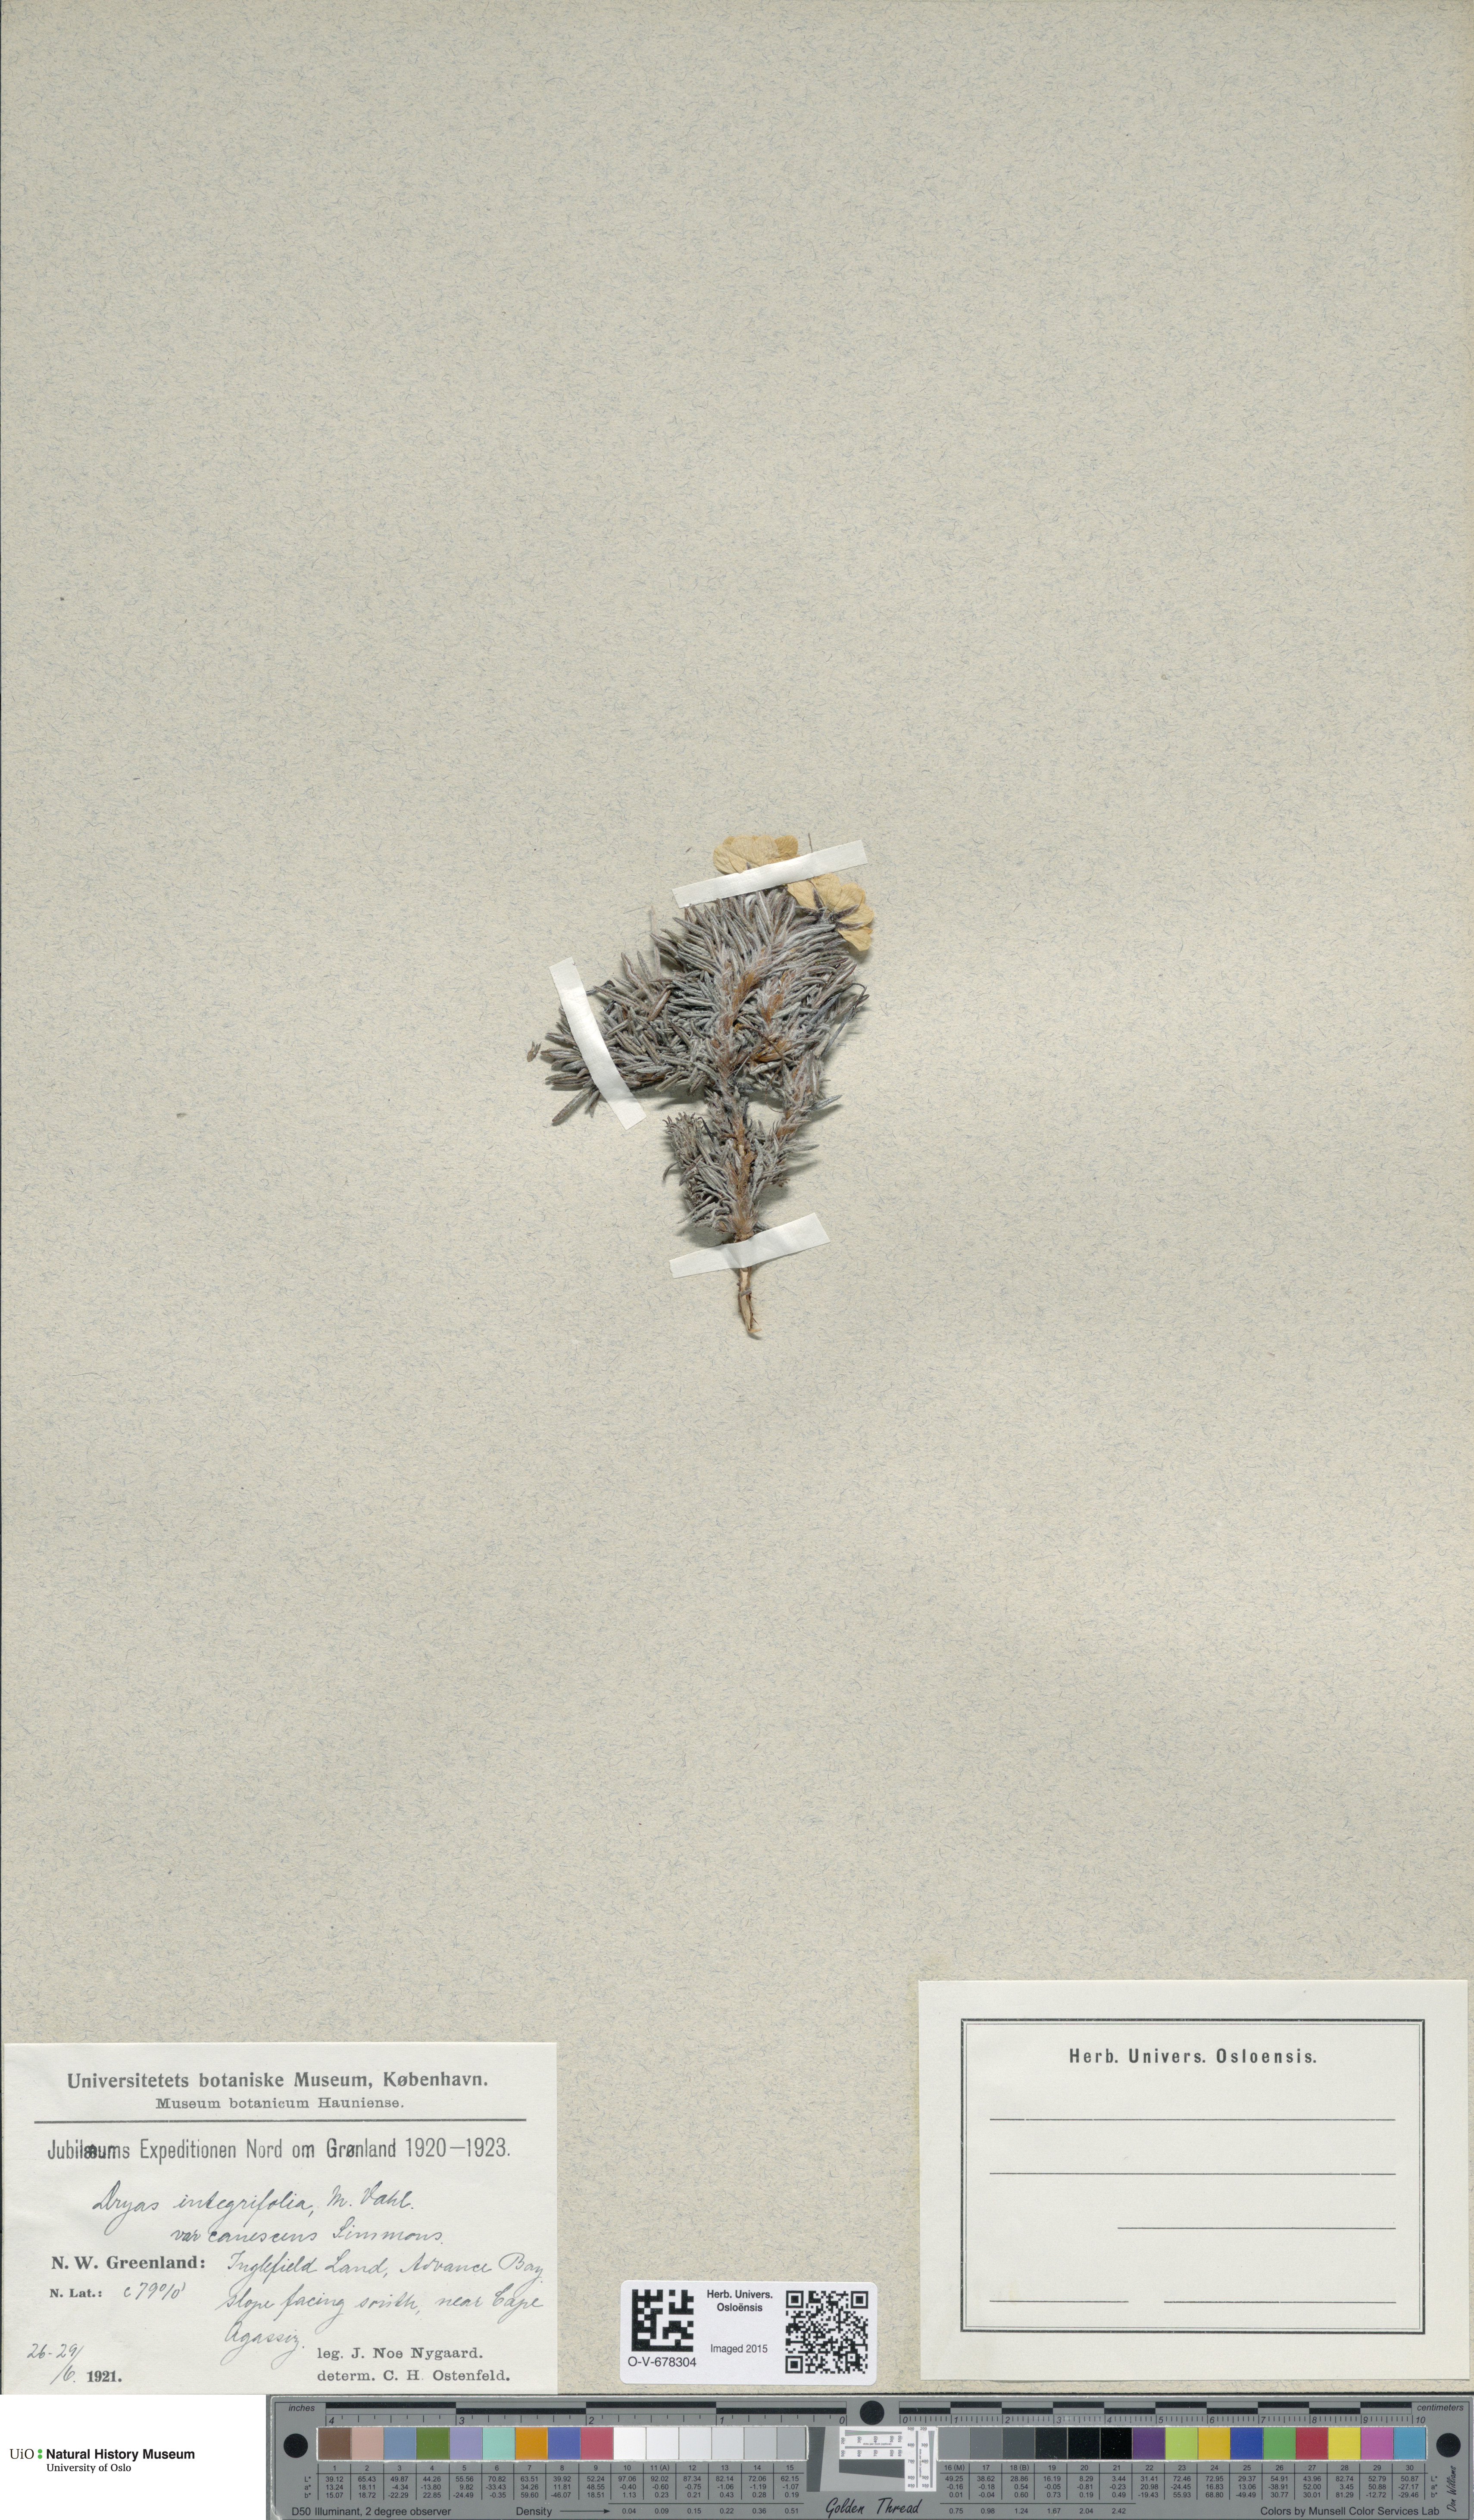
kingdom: Plantae
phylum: Tracheophyta
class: Magnoliopsida
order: Rosales
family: Rosaceae
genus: Dryas
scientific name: Dryas integrifolia
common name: Entire-leaved mountain avens
